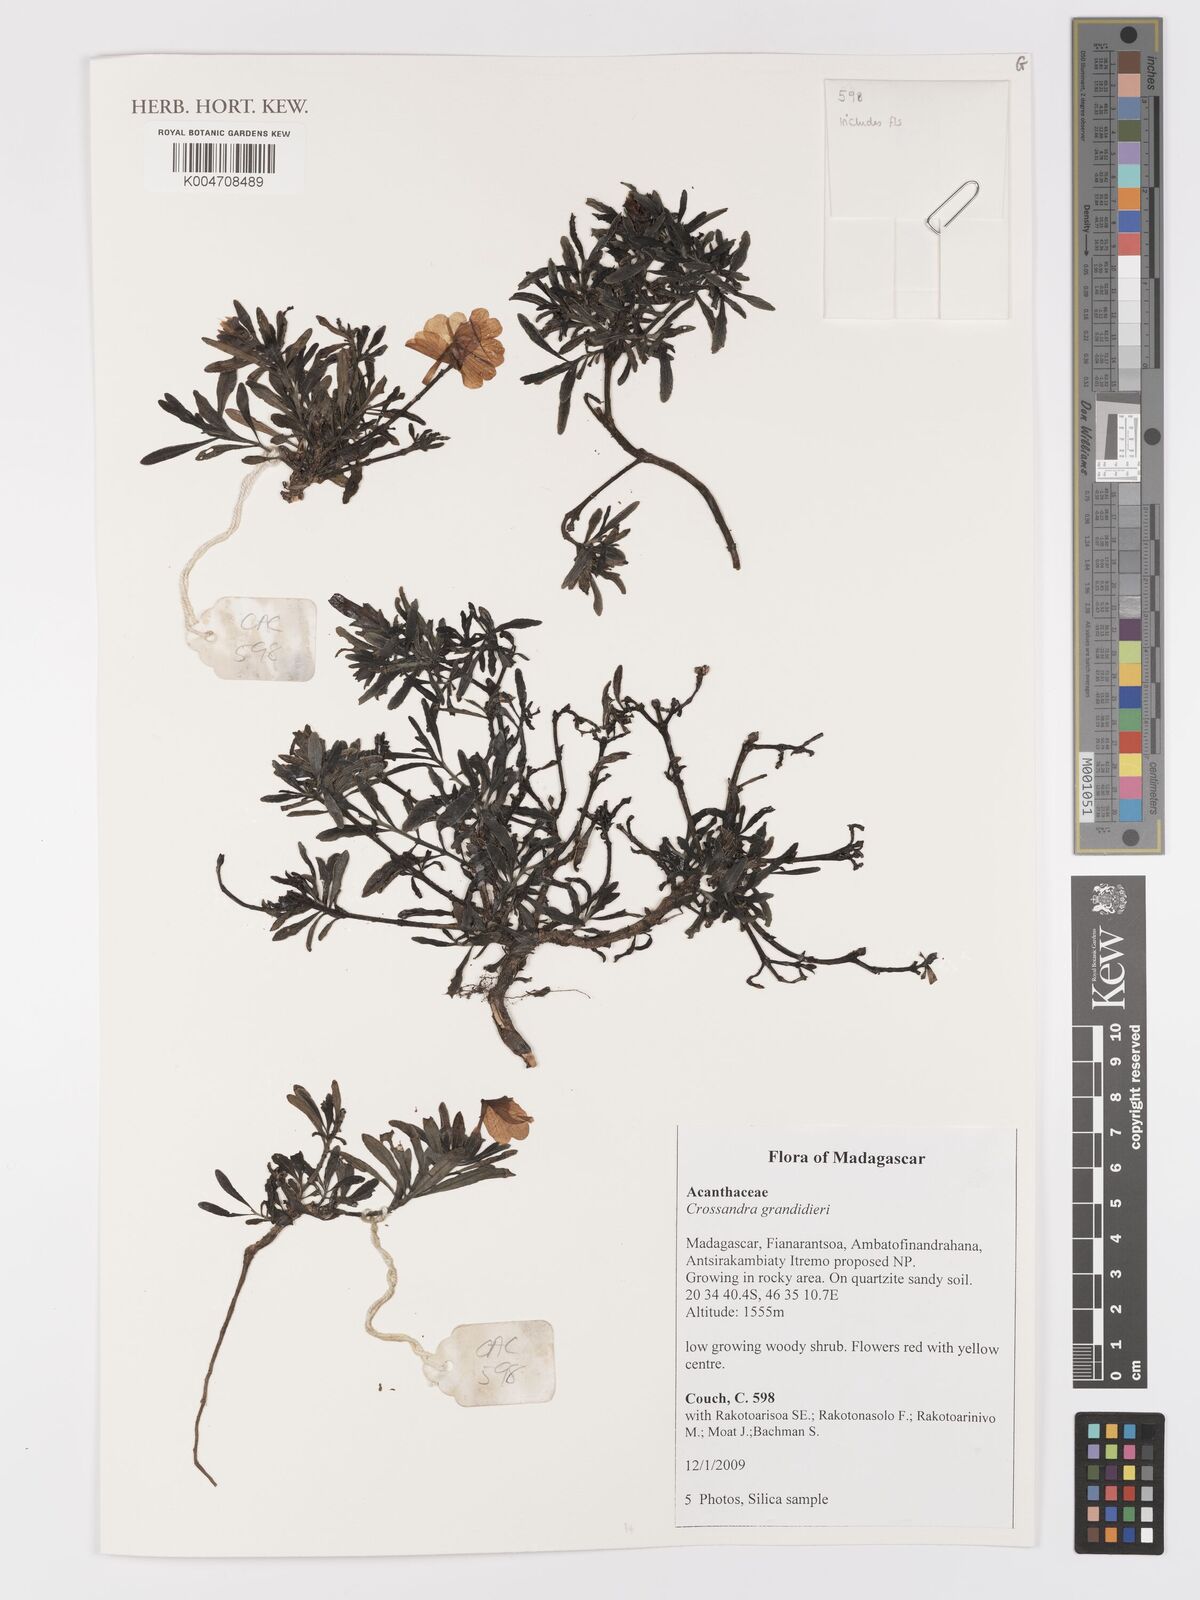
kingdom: Plantae
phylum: Tracheophyta
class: Magnoliopsida
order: Lamiales
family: Acanthaceae
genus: Crossandra
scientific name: Crossandra grandidieri
